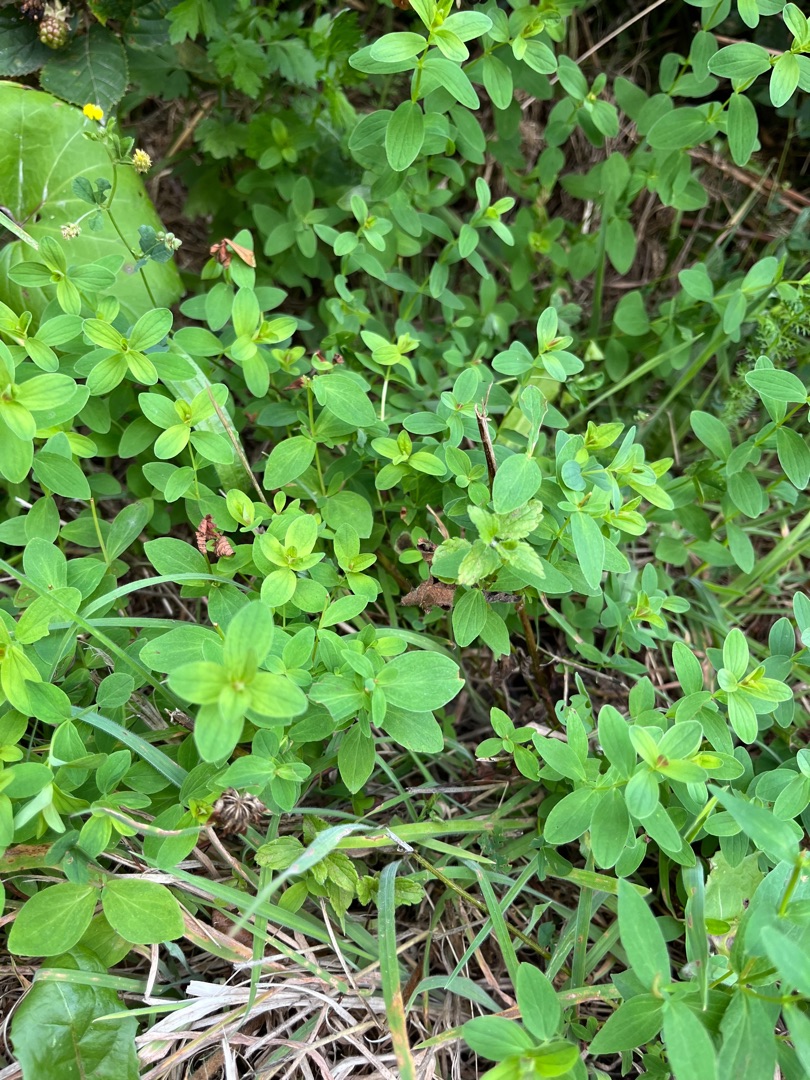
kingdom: Plantae
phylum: Tracheophyta
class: Magnoliopsida
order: Malpighiales
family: Hypericaceae
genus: Hypericum
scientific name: Hypericum perforatum
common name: Prikbladet perikon
